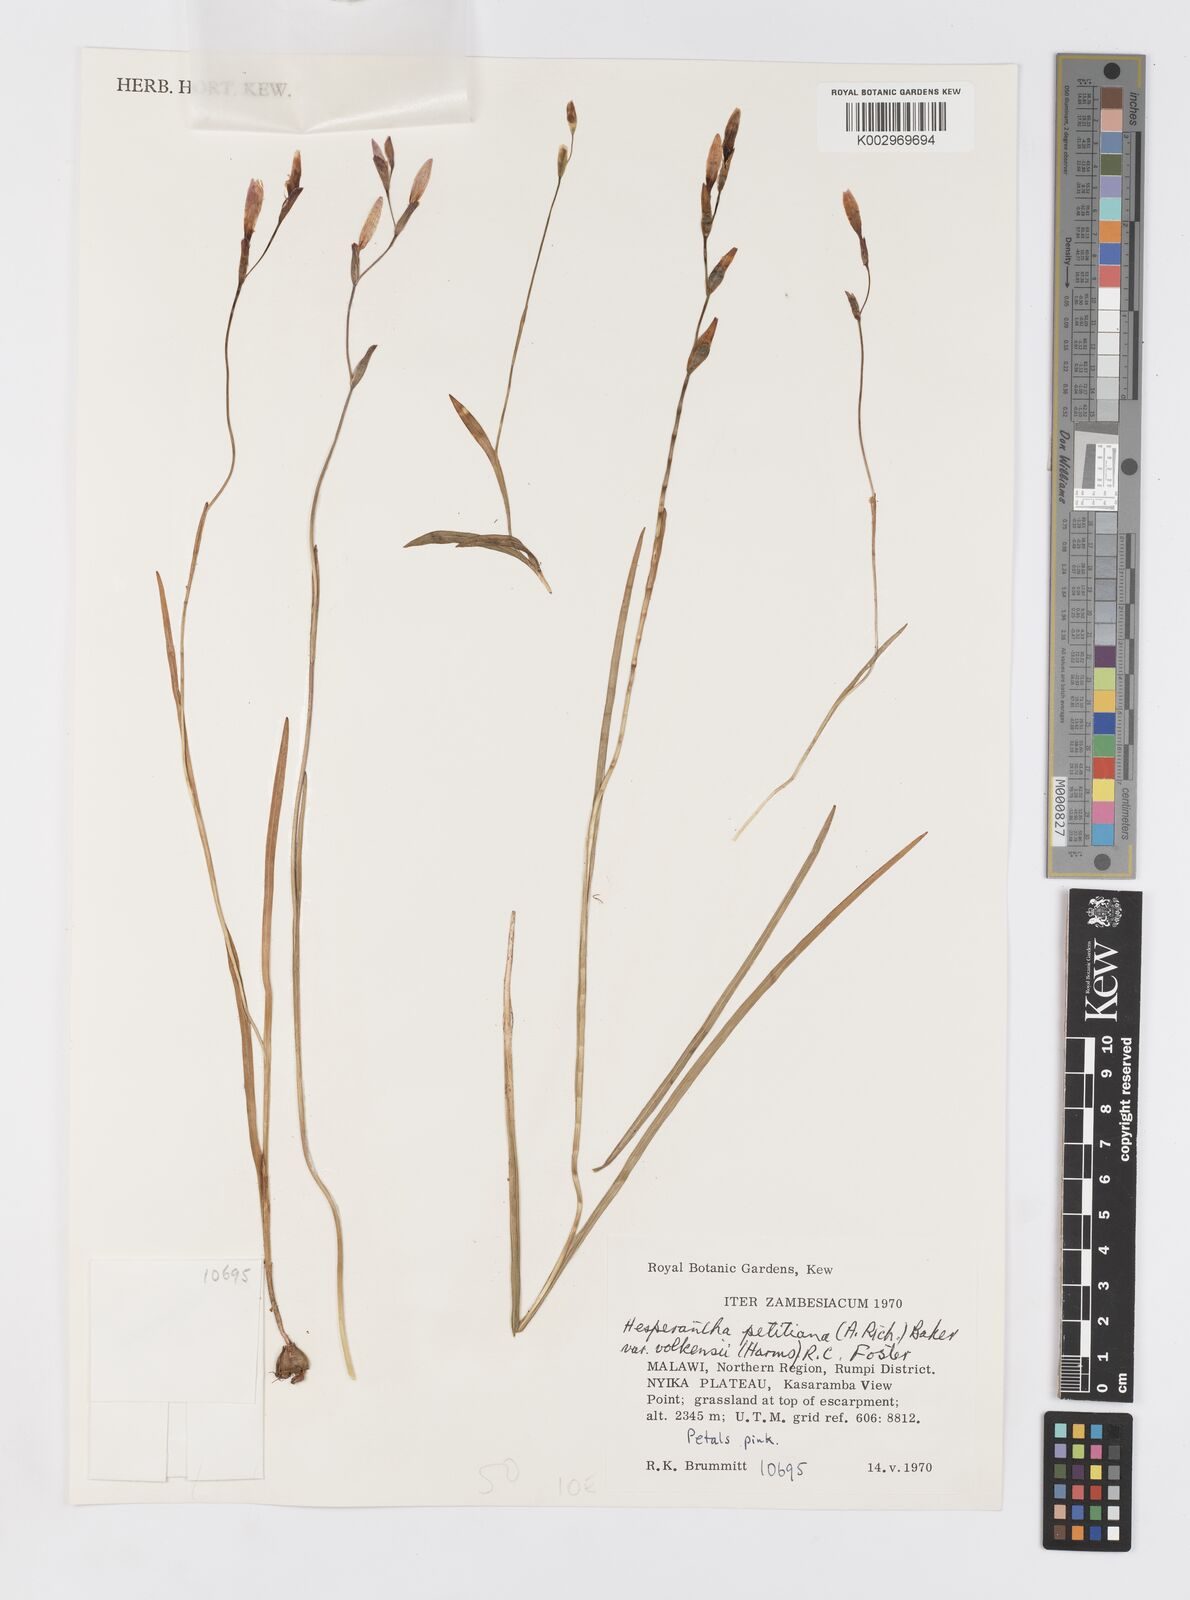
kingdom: Plantae
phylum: Tracheophyta
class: Liliopsida
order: Asparagales
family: Iridaceae
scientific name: Iridaceae
